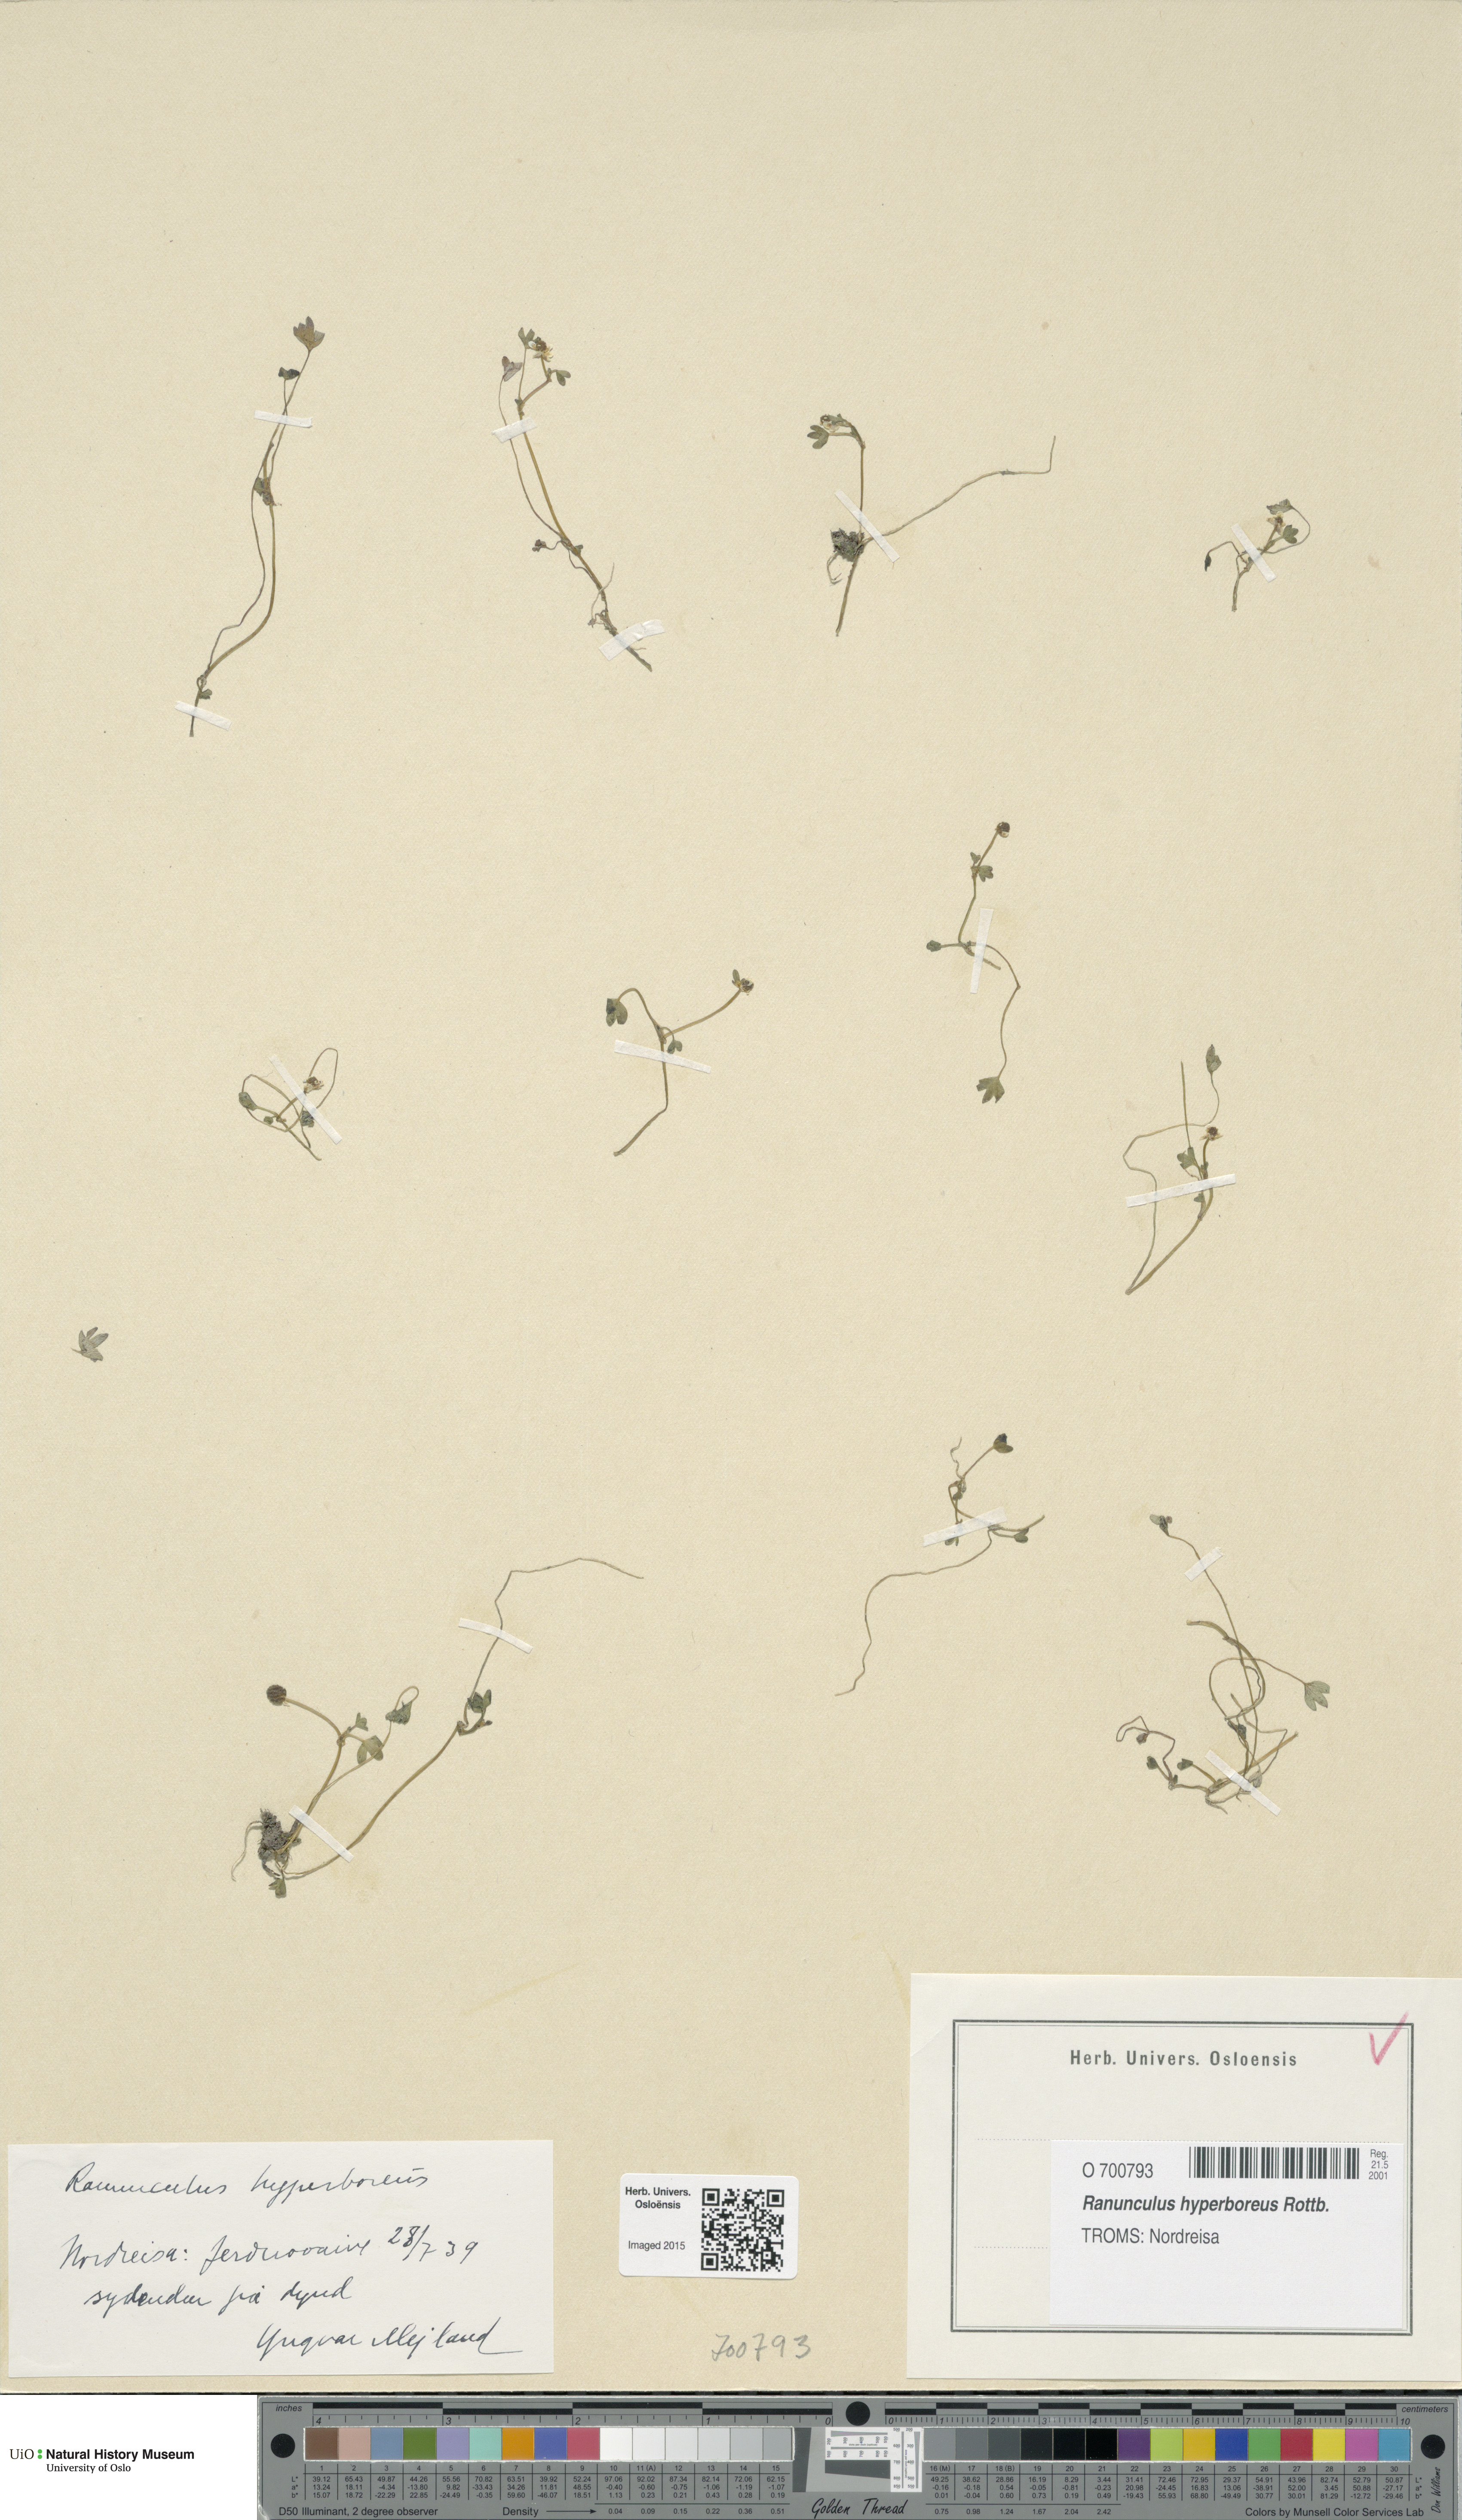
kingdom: Plantae
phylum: Tracheophyta
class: Magnoliopsida
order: Ranunculales
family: Ranunculaceae
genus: Ranunculus
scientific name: Ranunculus hyperboreus
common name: Arctic buttercup
